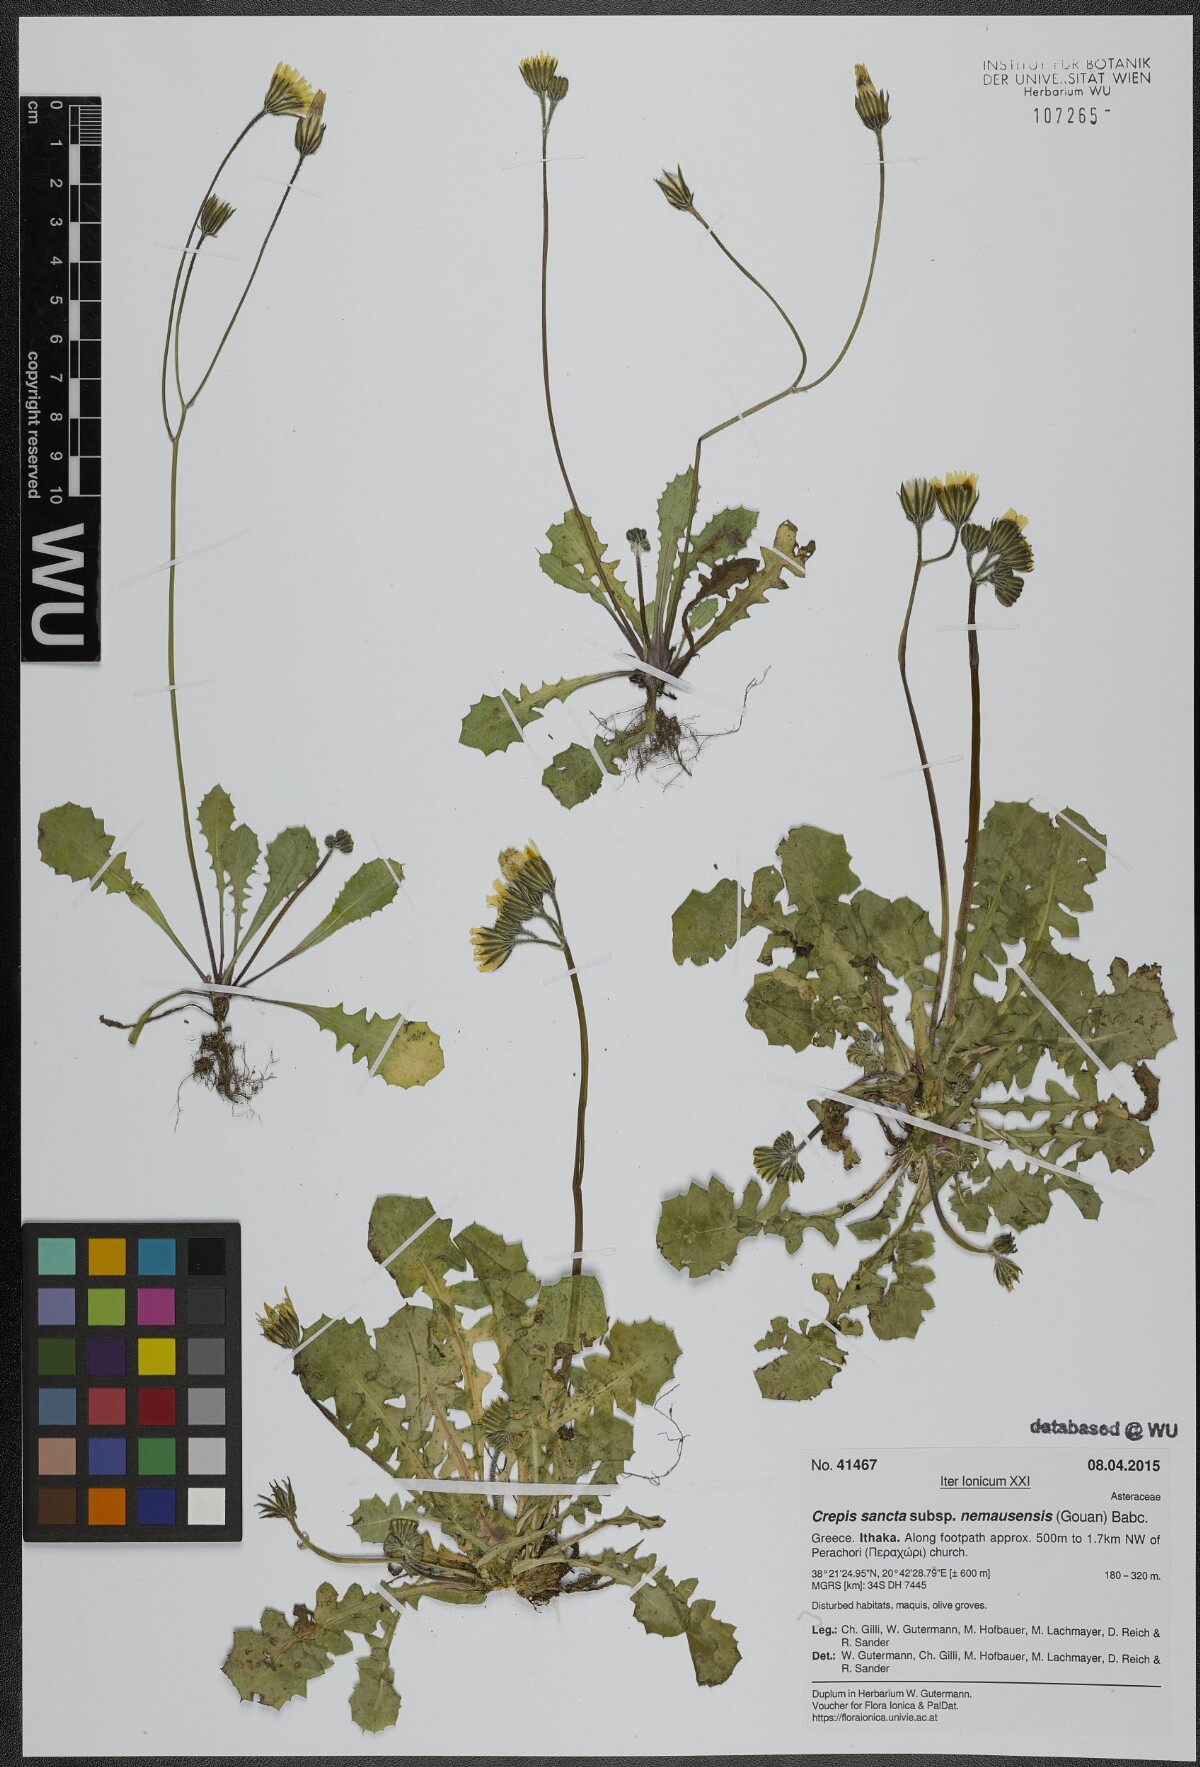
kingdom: Plantae
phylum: Tracheophyta
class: Magnoliopsida
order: Asterales
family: Asteraceae
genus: Crepis
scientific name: Crepis sancta
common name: Hawk's-beard
